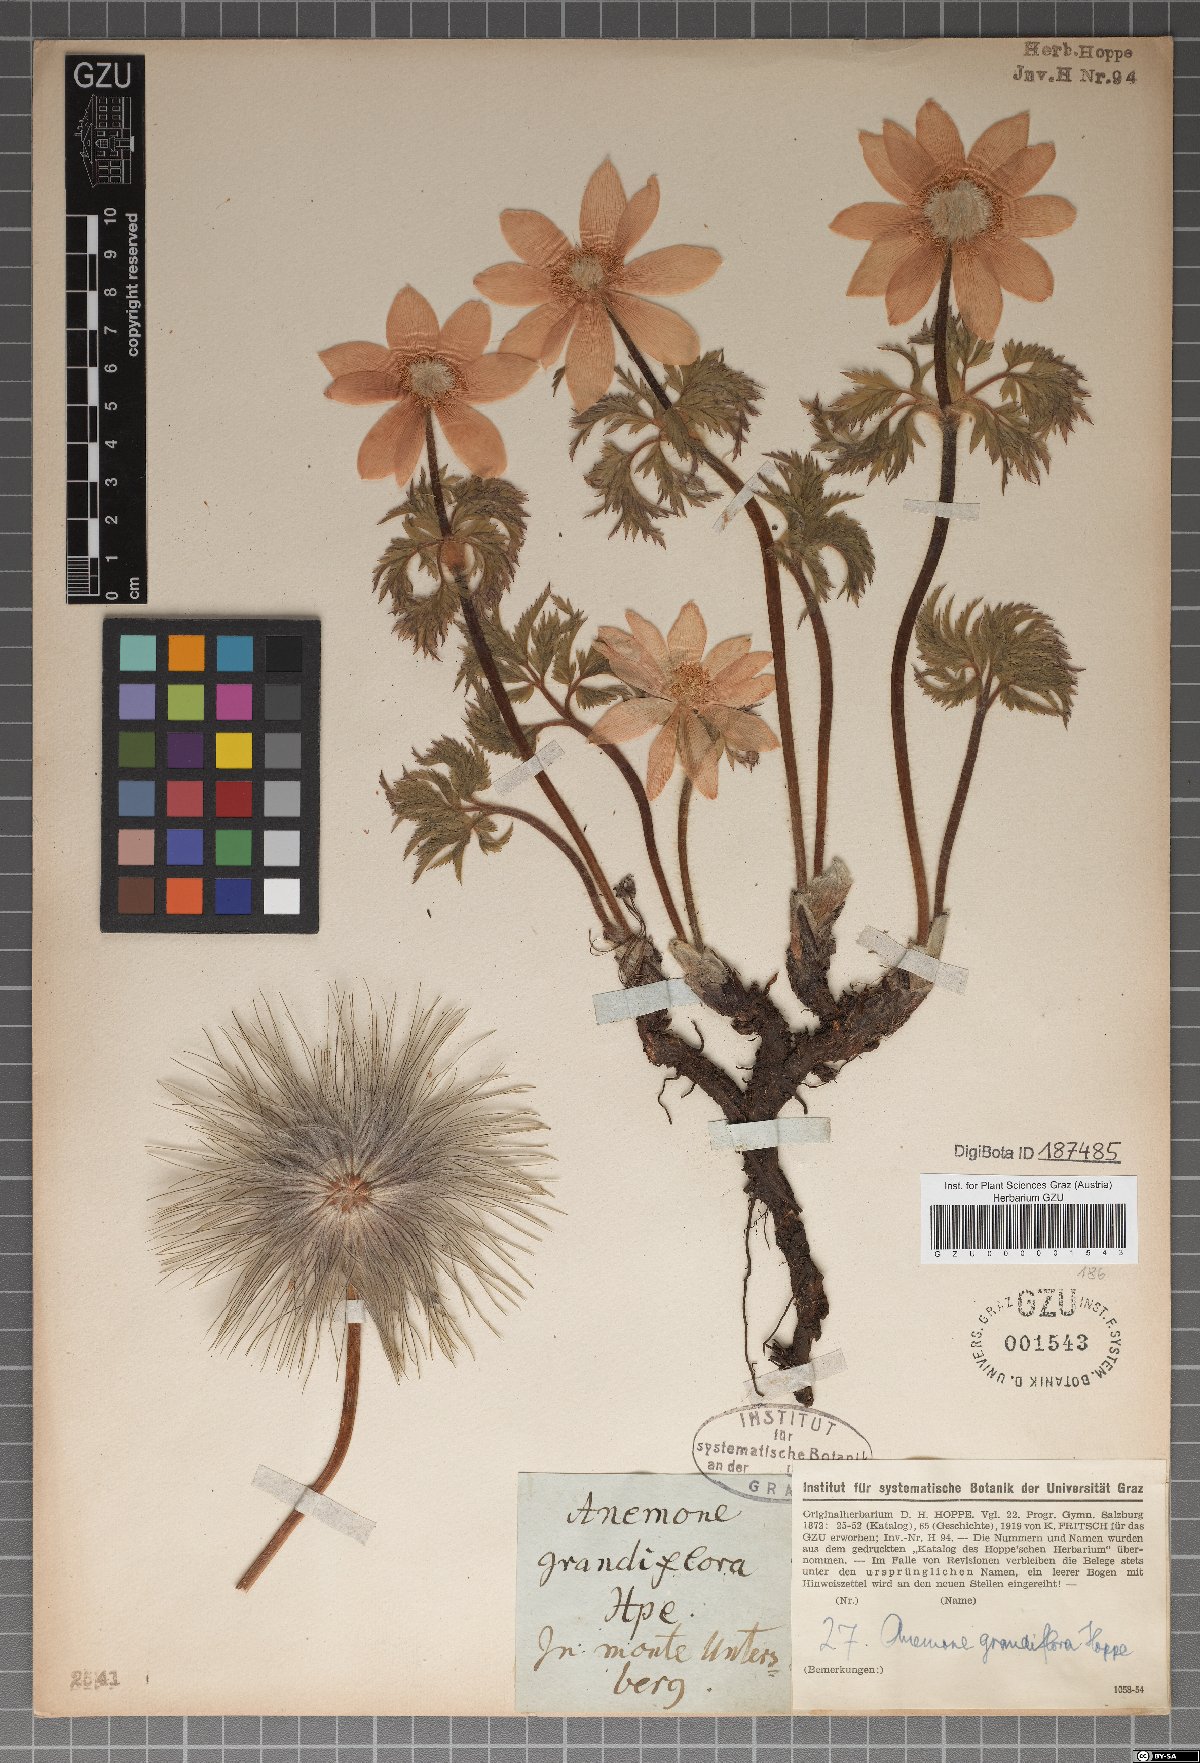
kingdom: Plantae
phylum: Tracheophyta
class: Magnoliopsida
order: Ranunculales
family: Ranunculaceae
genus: Pulsatilla
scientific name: Pulsatilla alpina
